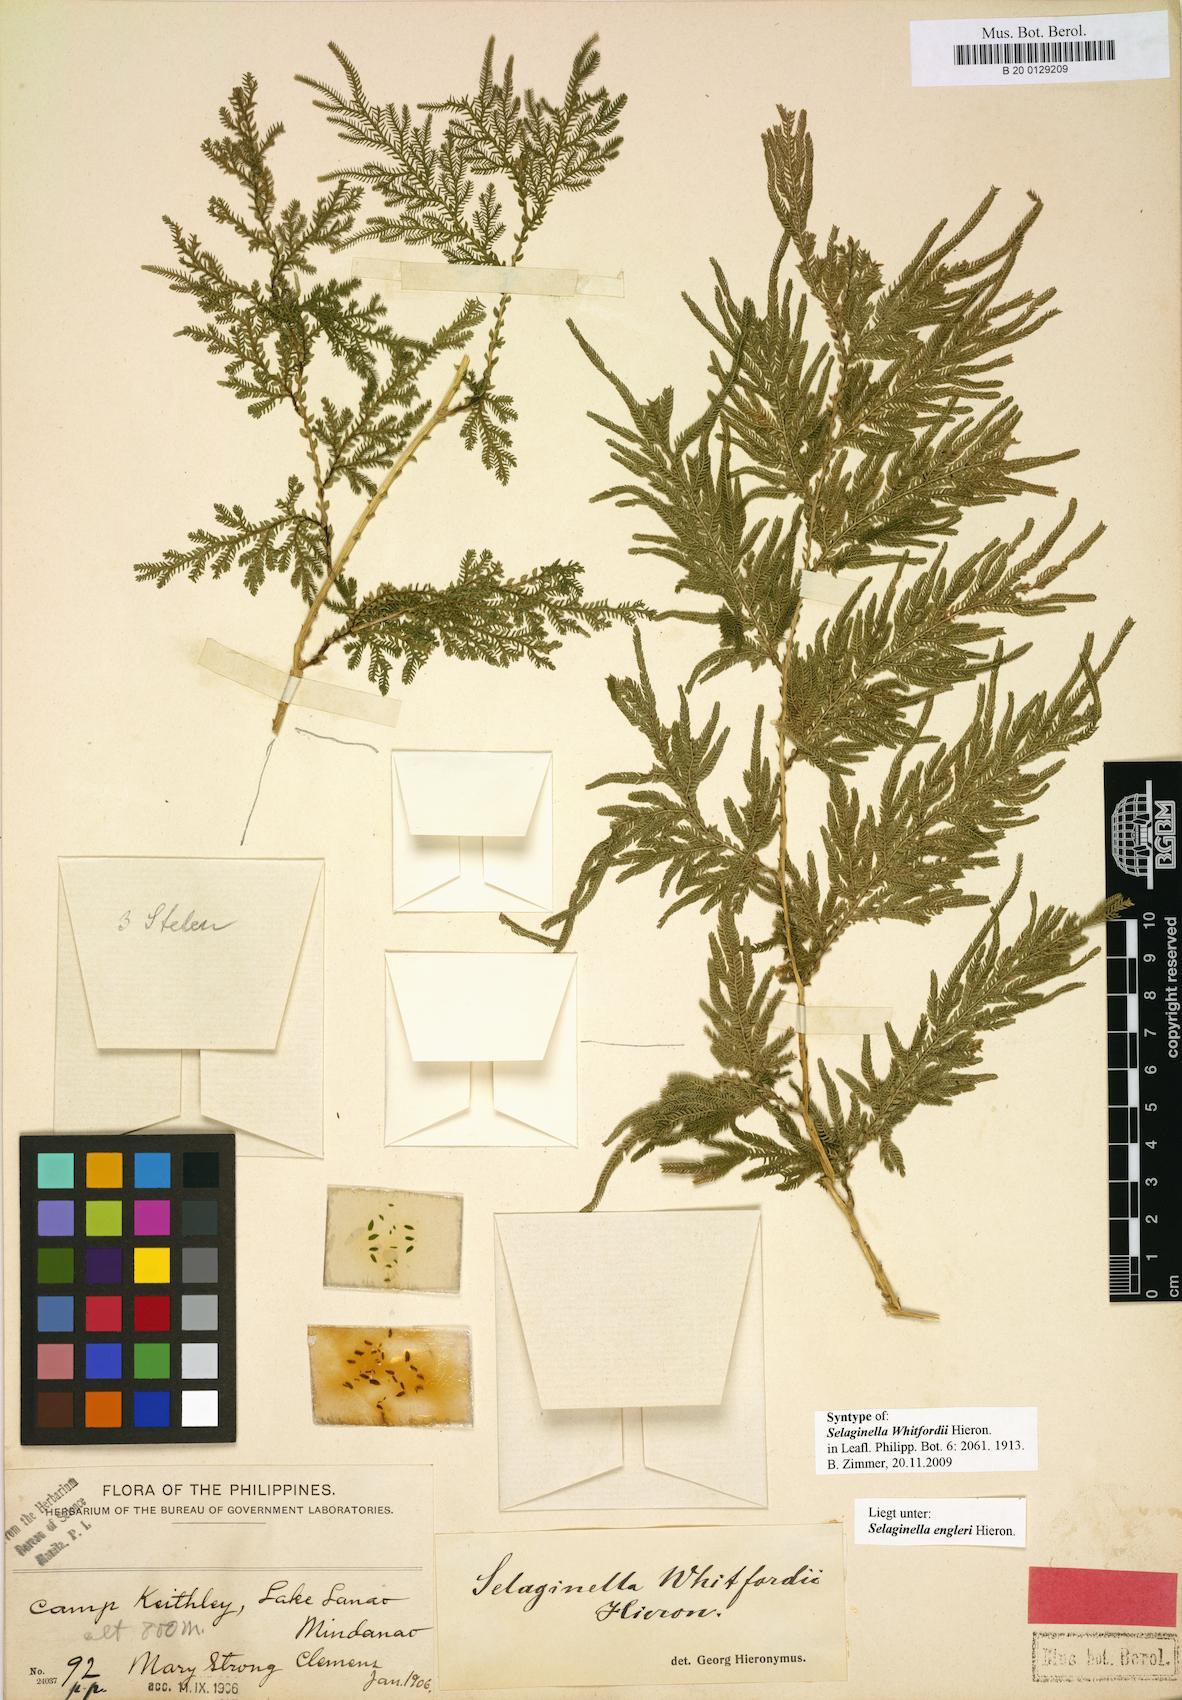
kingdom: Plantae
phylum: Tracheophyta
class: Lycopodiopsida
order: Selaginellales
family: Selaginellaceae
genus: Selaginella
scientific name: Selaginella engleri
